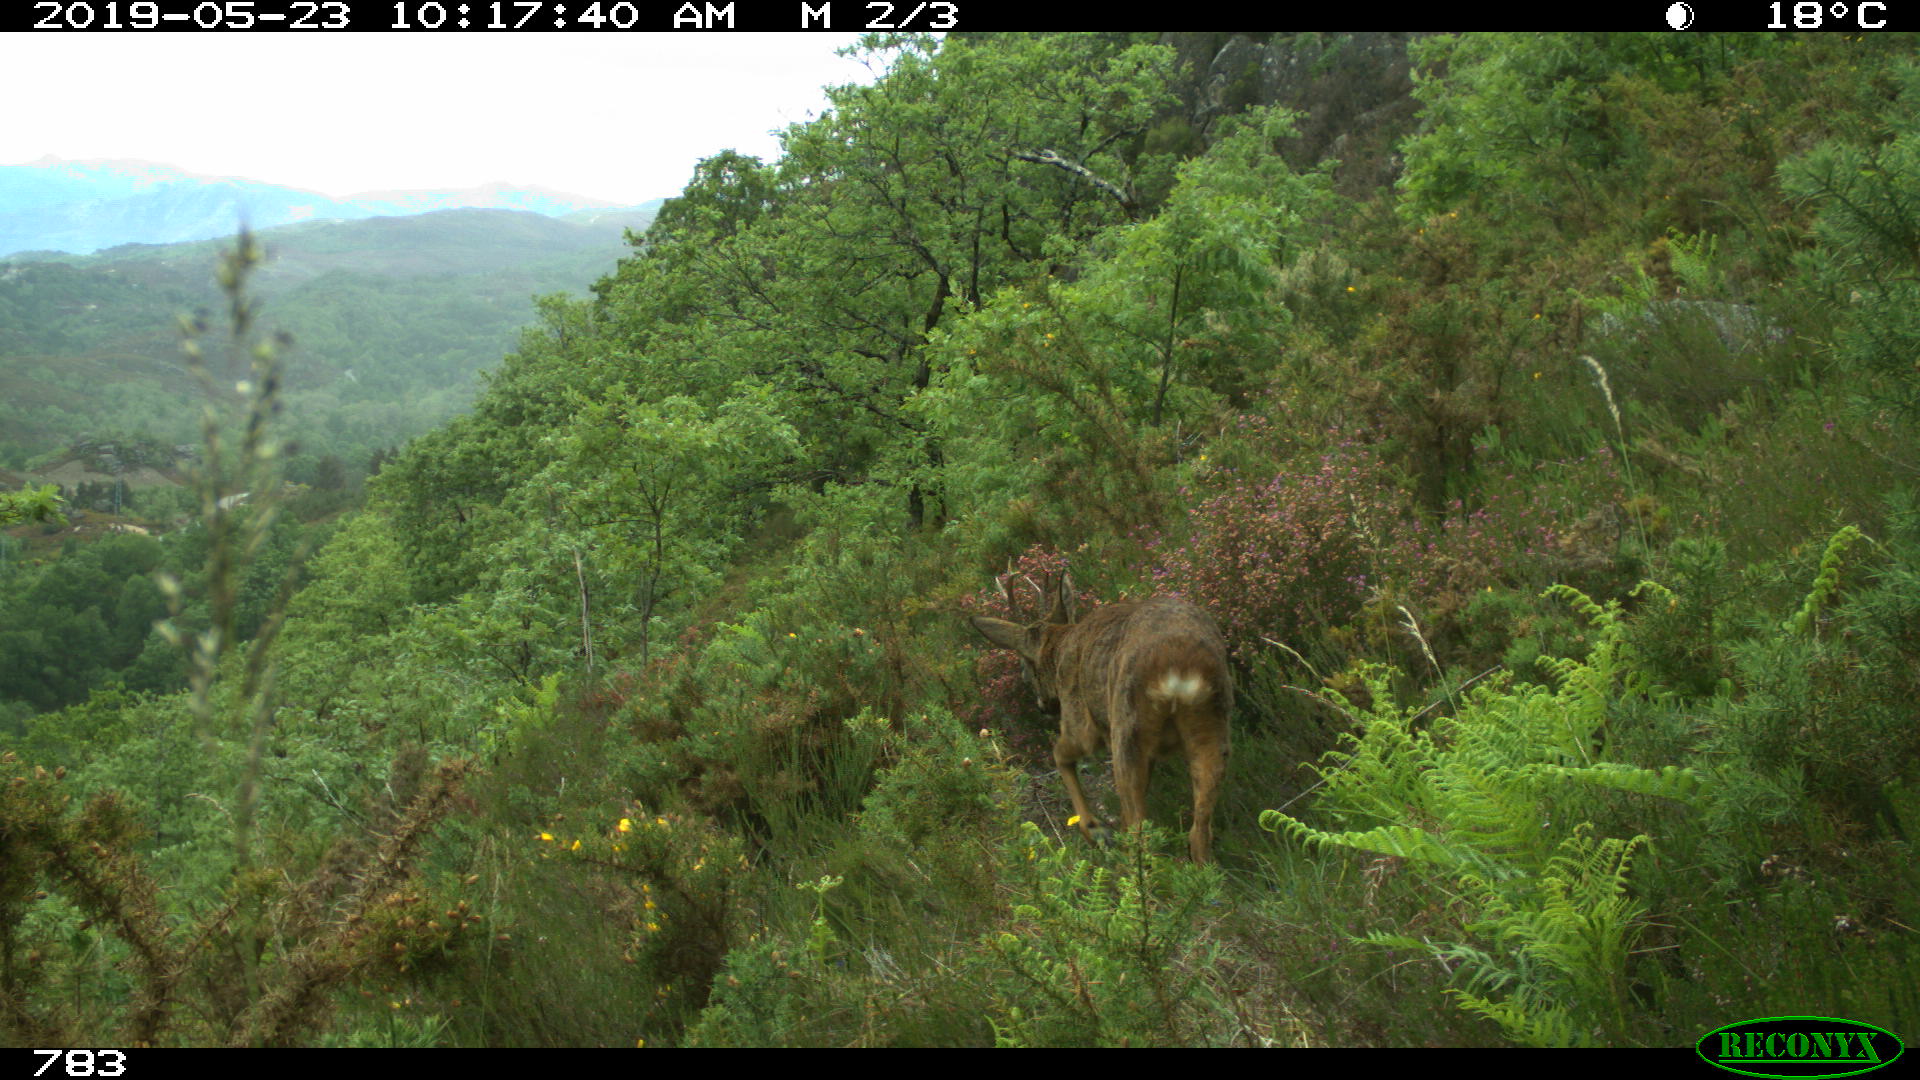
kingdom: Animalia
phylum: Chordata
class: Mammalia
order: Artiodactyla
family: Cervidae
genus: Capreolus
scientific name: Capreolus capreolus
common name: Western roe deer
